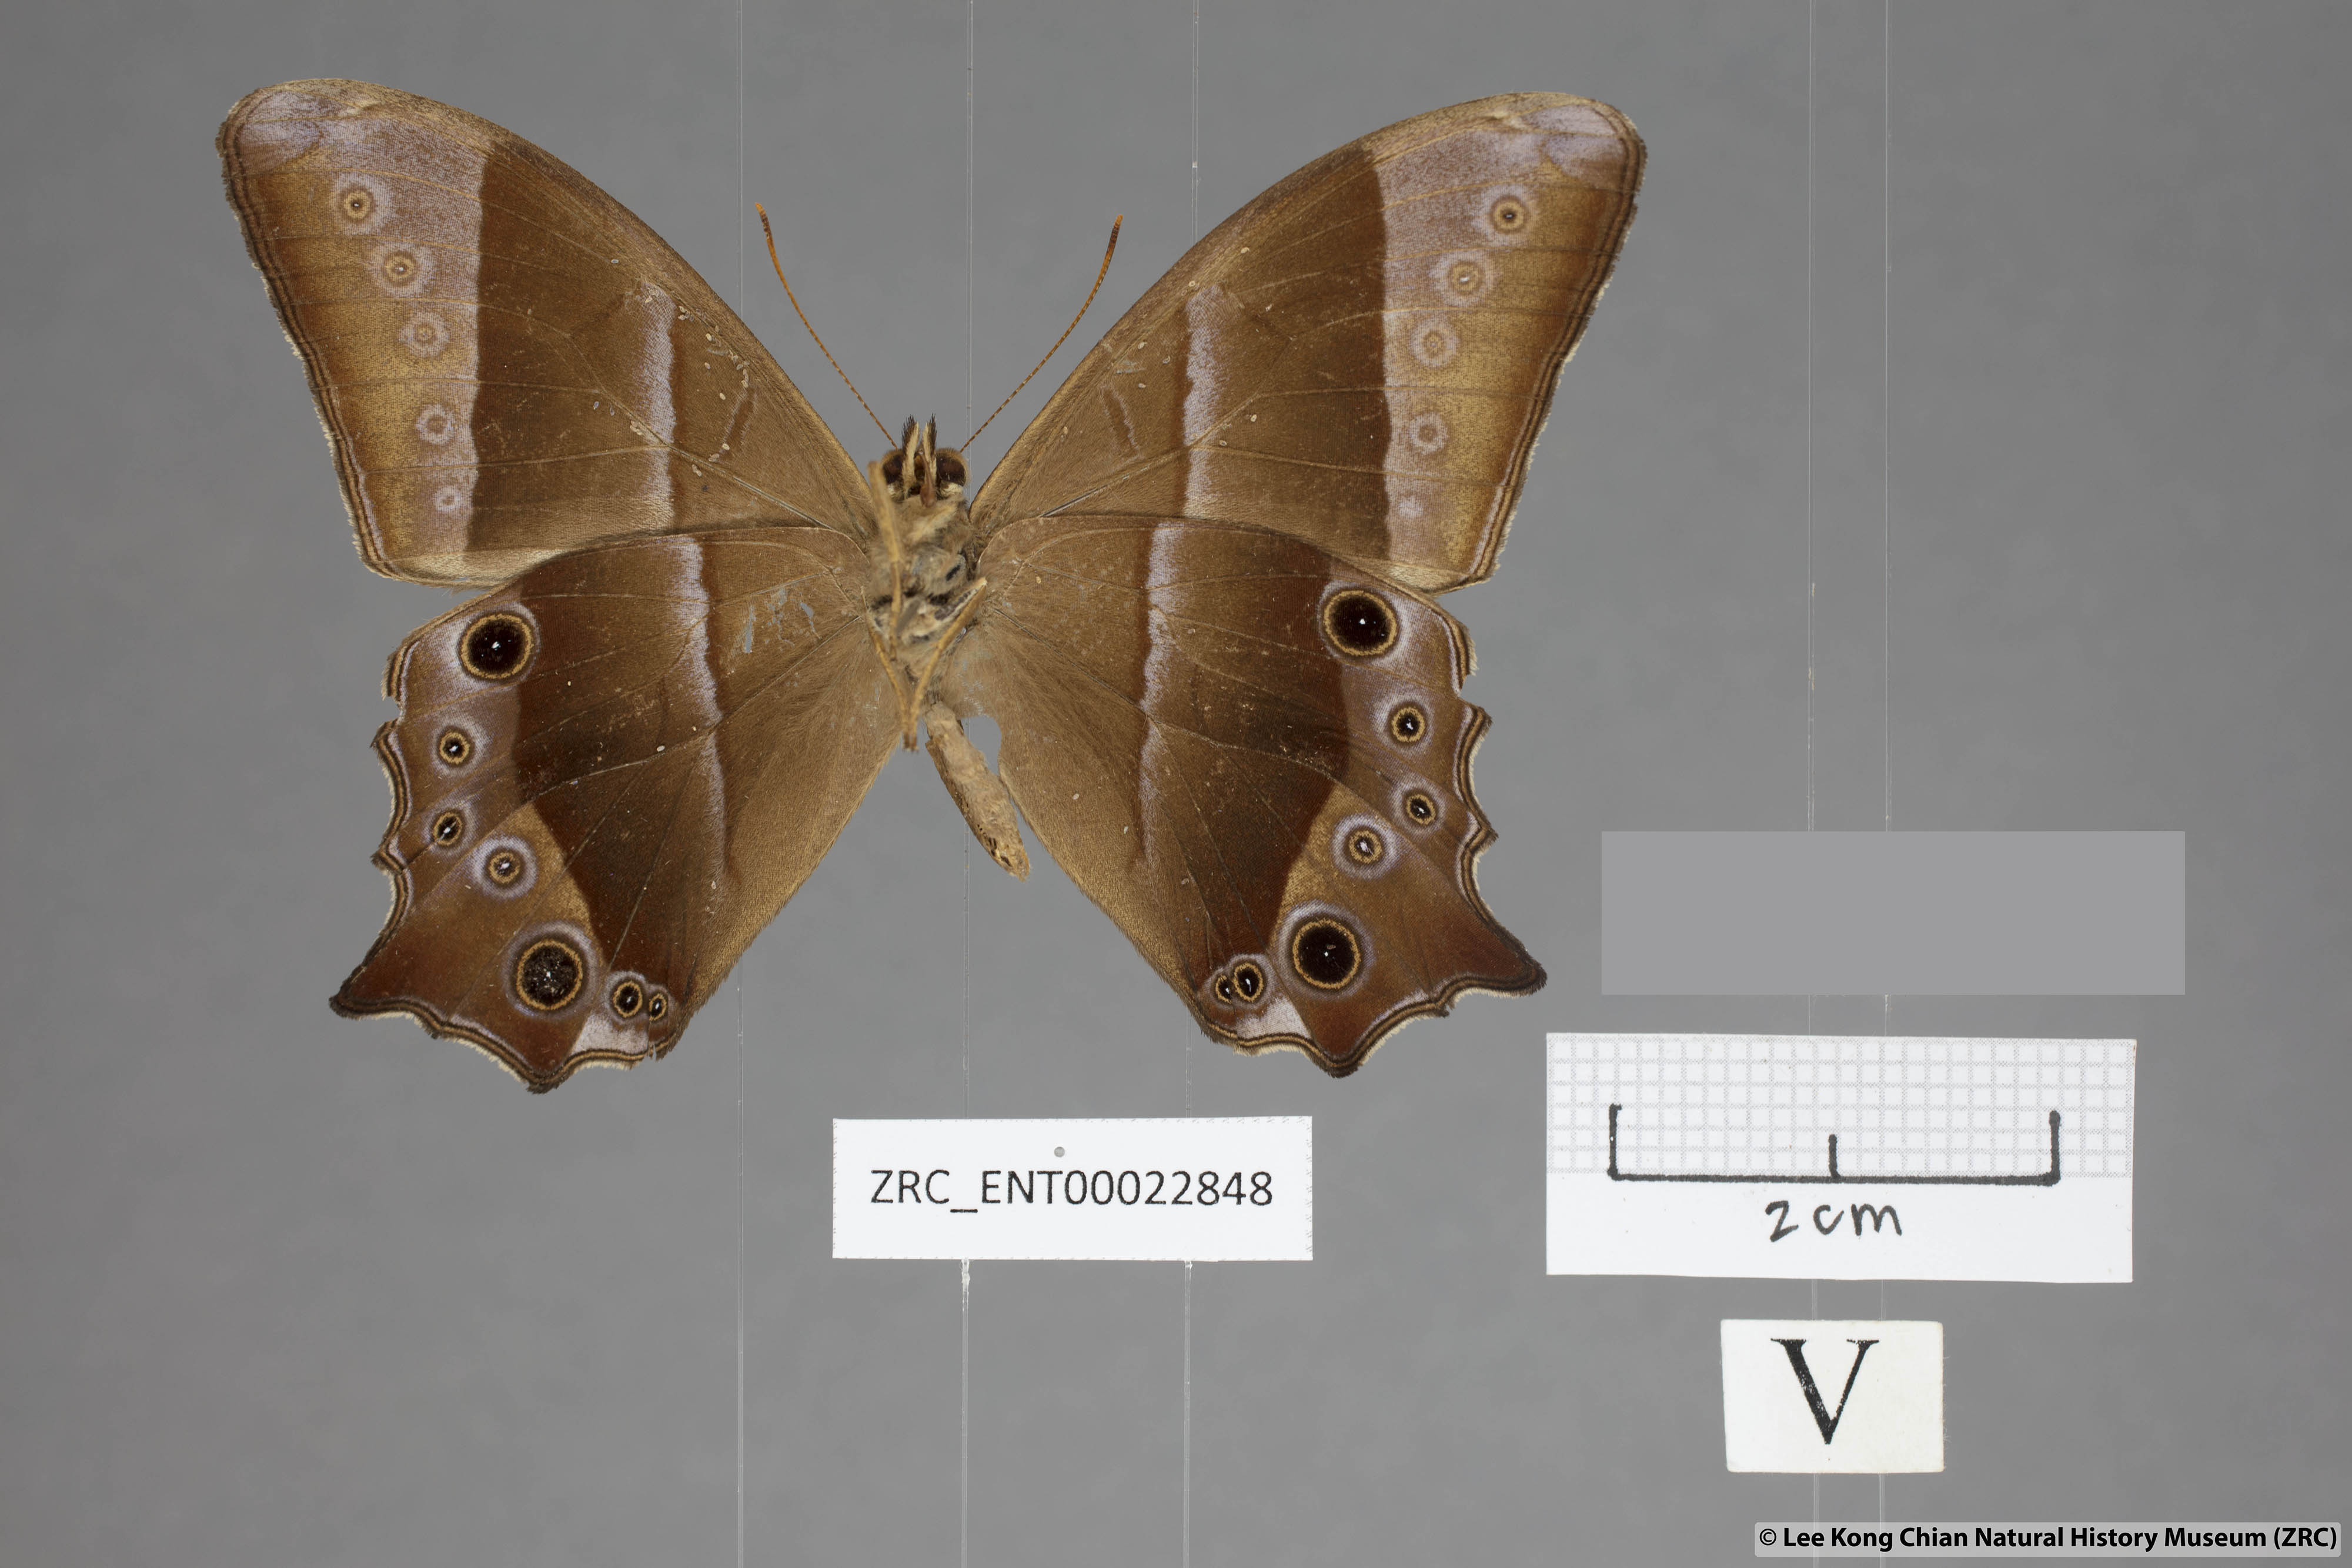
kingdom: Animalia
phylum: Arthropoda
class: Insecta
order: Lepidoptera
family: Nymphalidae
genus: Lethe
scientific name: Lethe vindhya
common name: Black forester
